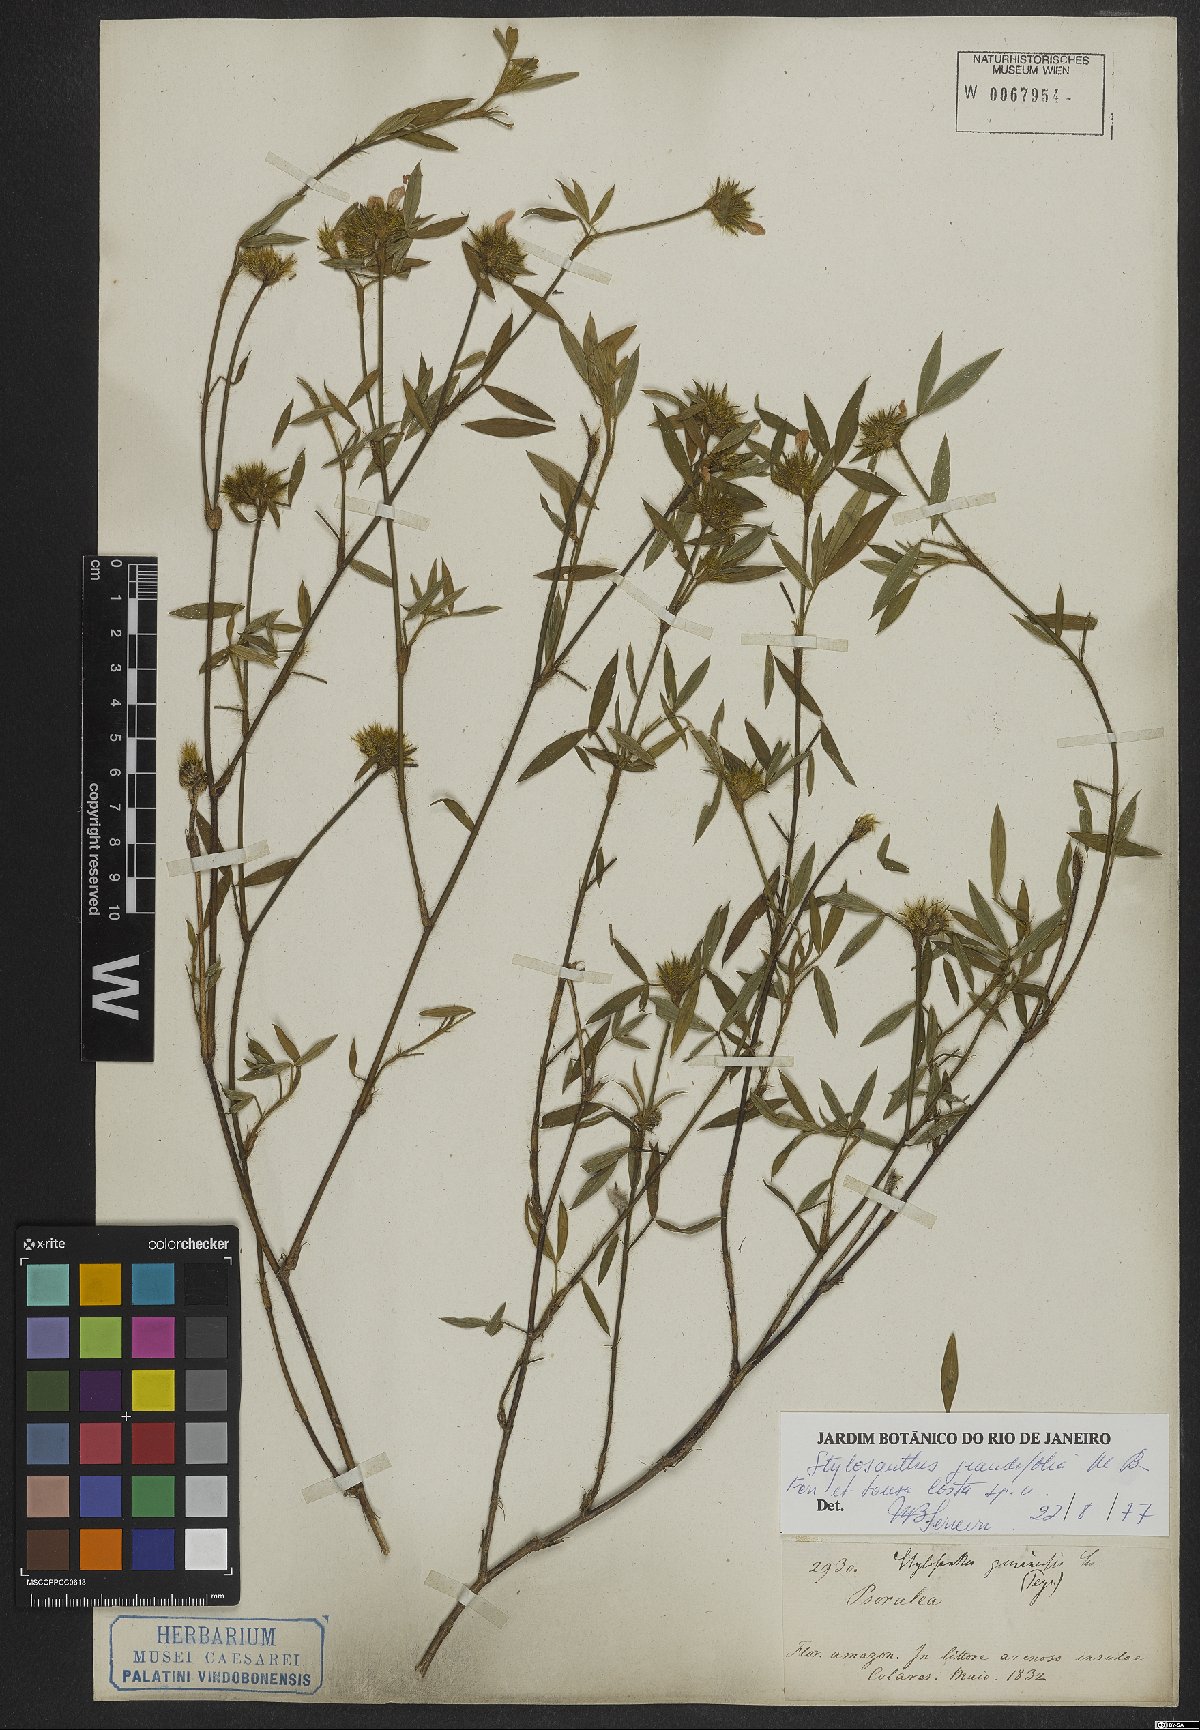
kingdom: Plantae
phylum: Tracheophyta
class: Magnoliopsida
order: Fabales
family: Fabaceae
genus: Stylosanthes
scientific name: Stylosanthes guianensis
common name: Pencil flower
